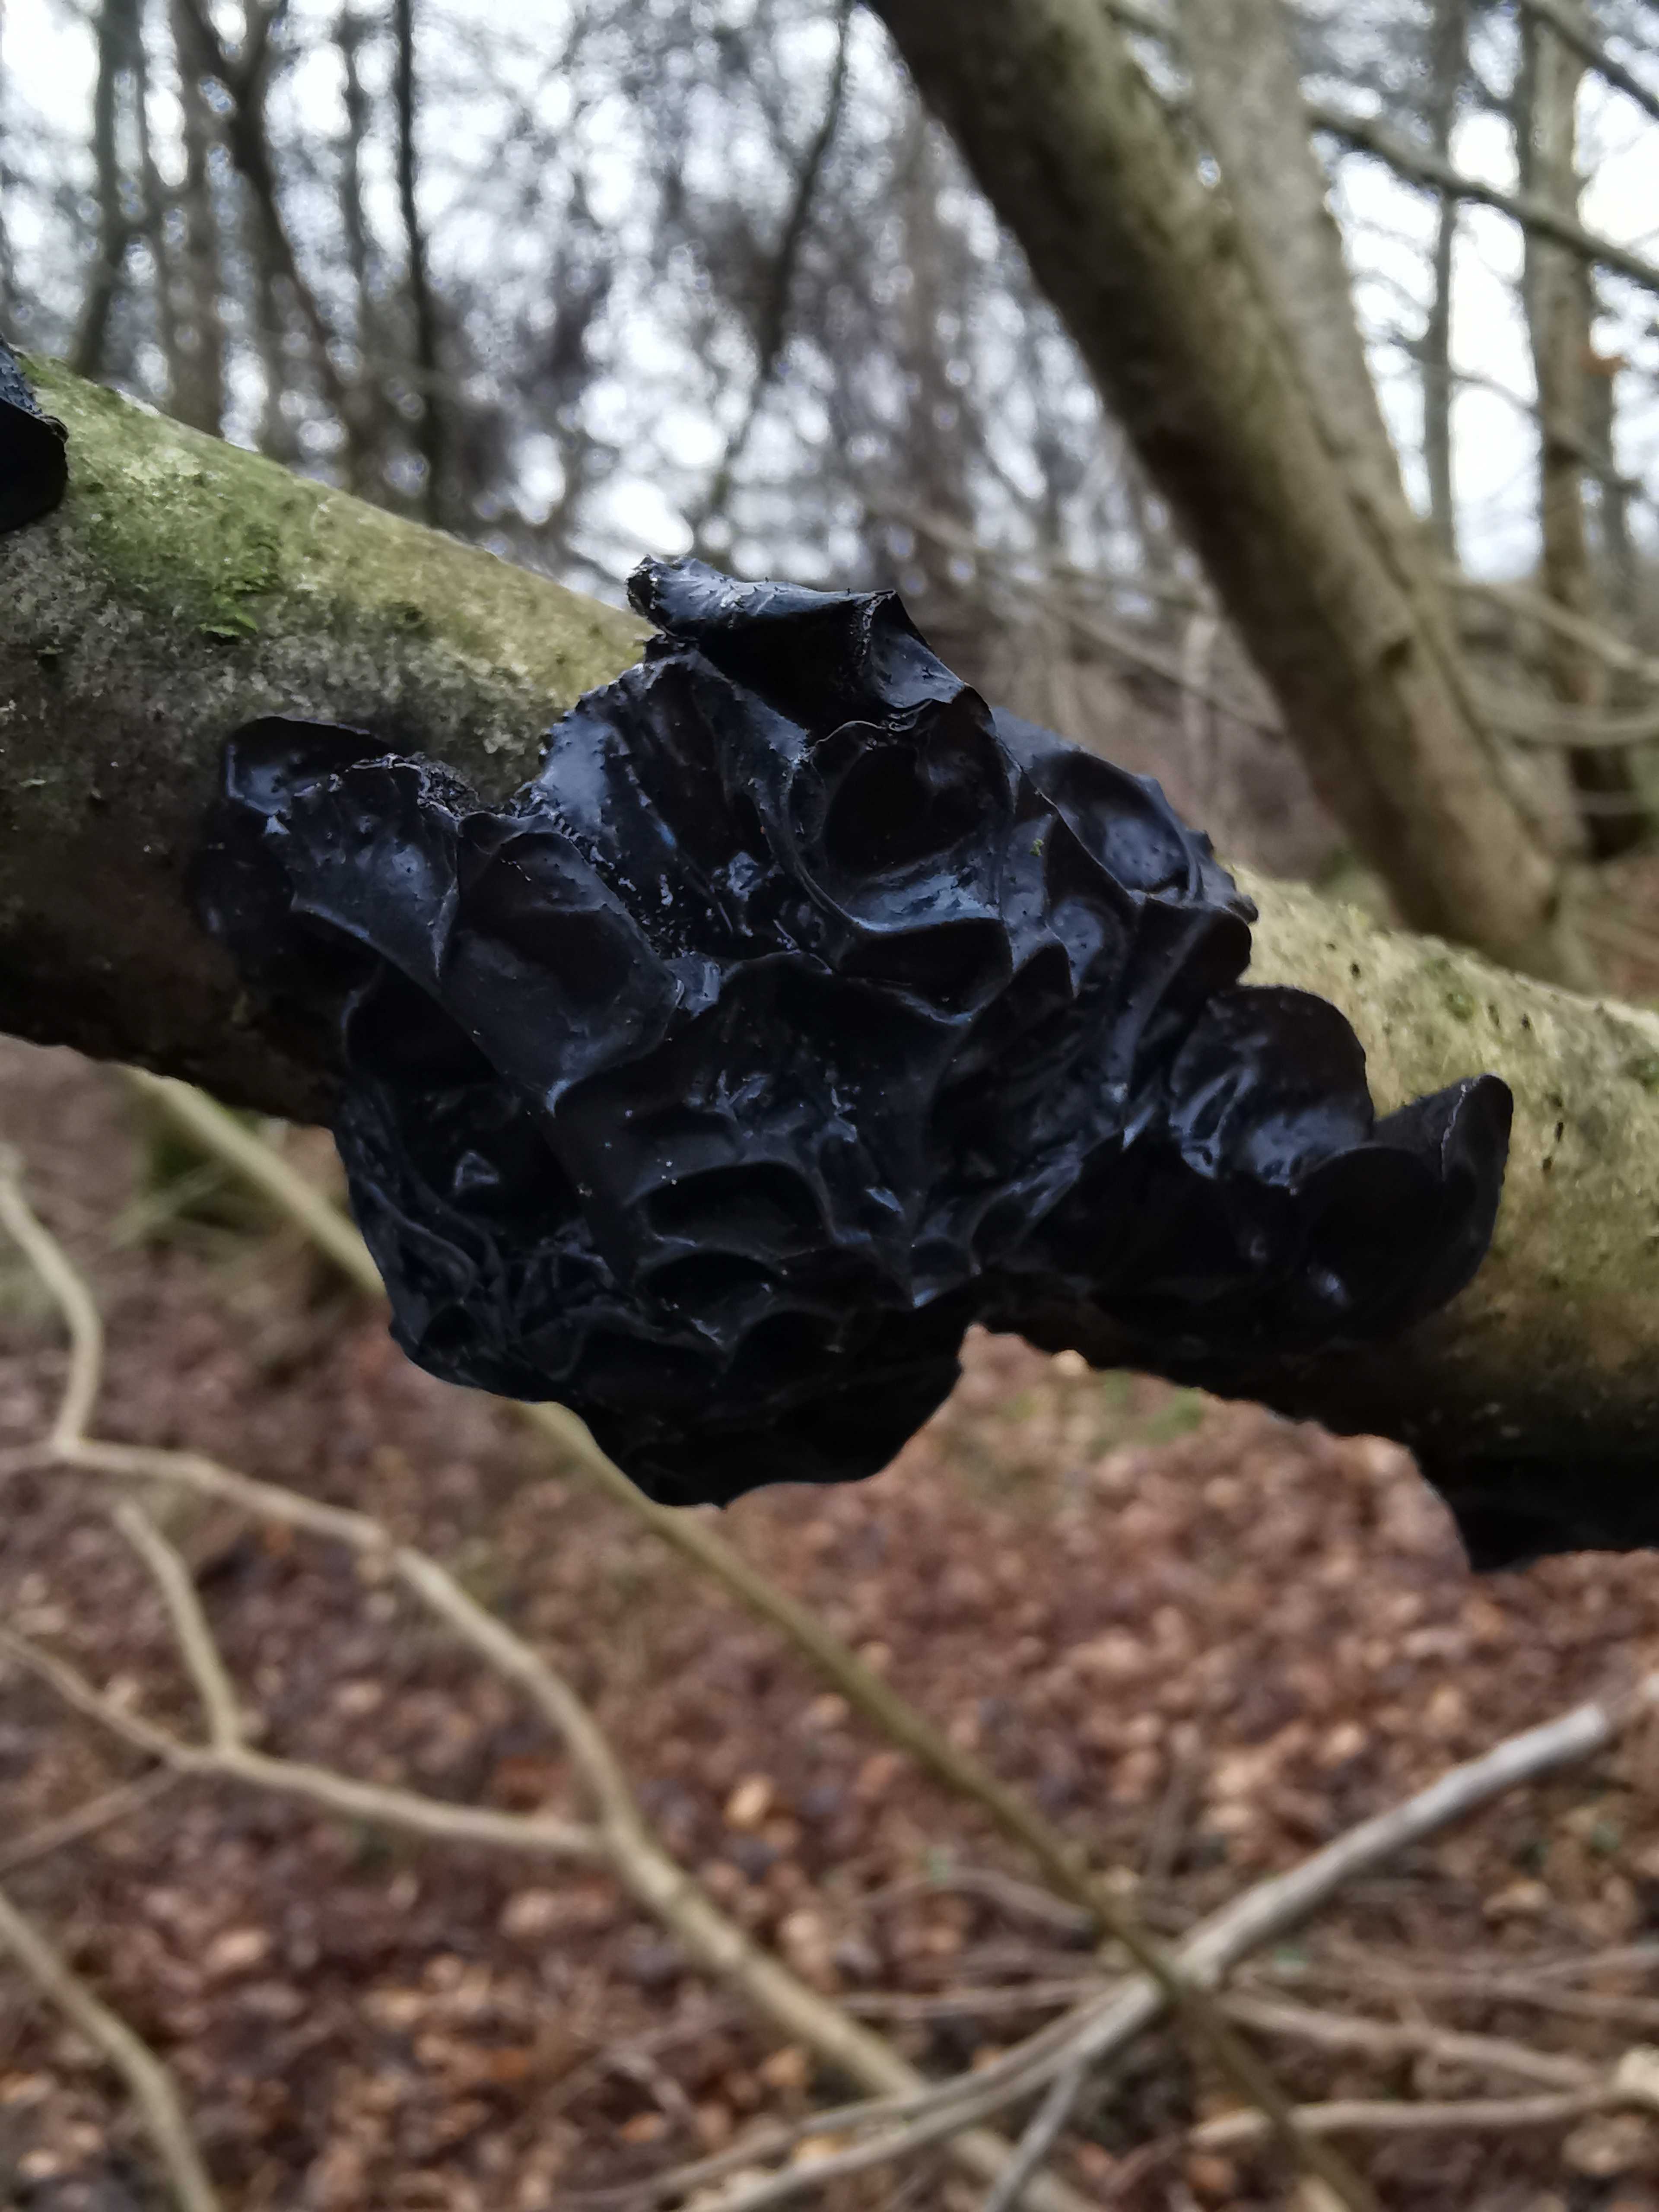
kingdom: Fungi
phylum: Basidiomycota
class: Agaricomycetes
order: Auriculariales
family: Auriculariaceae
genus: Exidia
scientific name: Exidia glandulosa
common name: ege-bævretop
